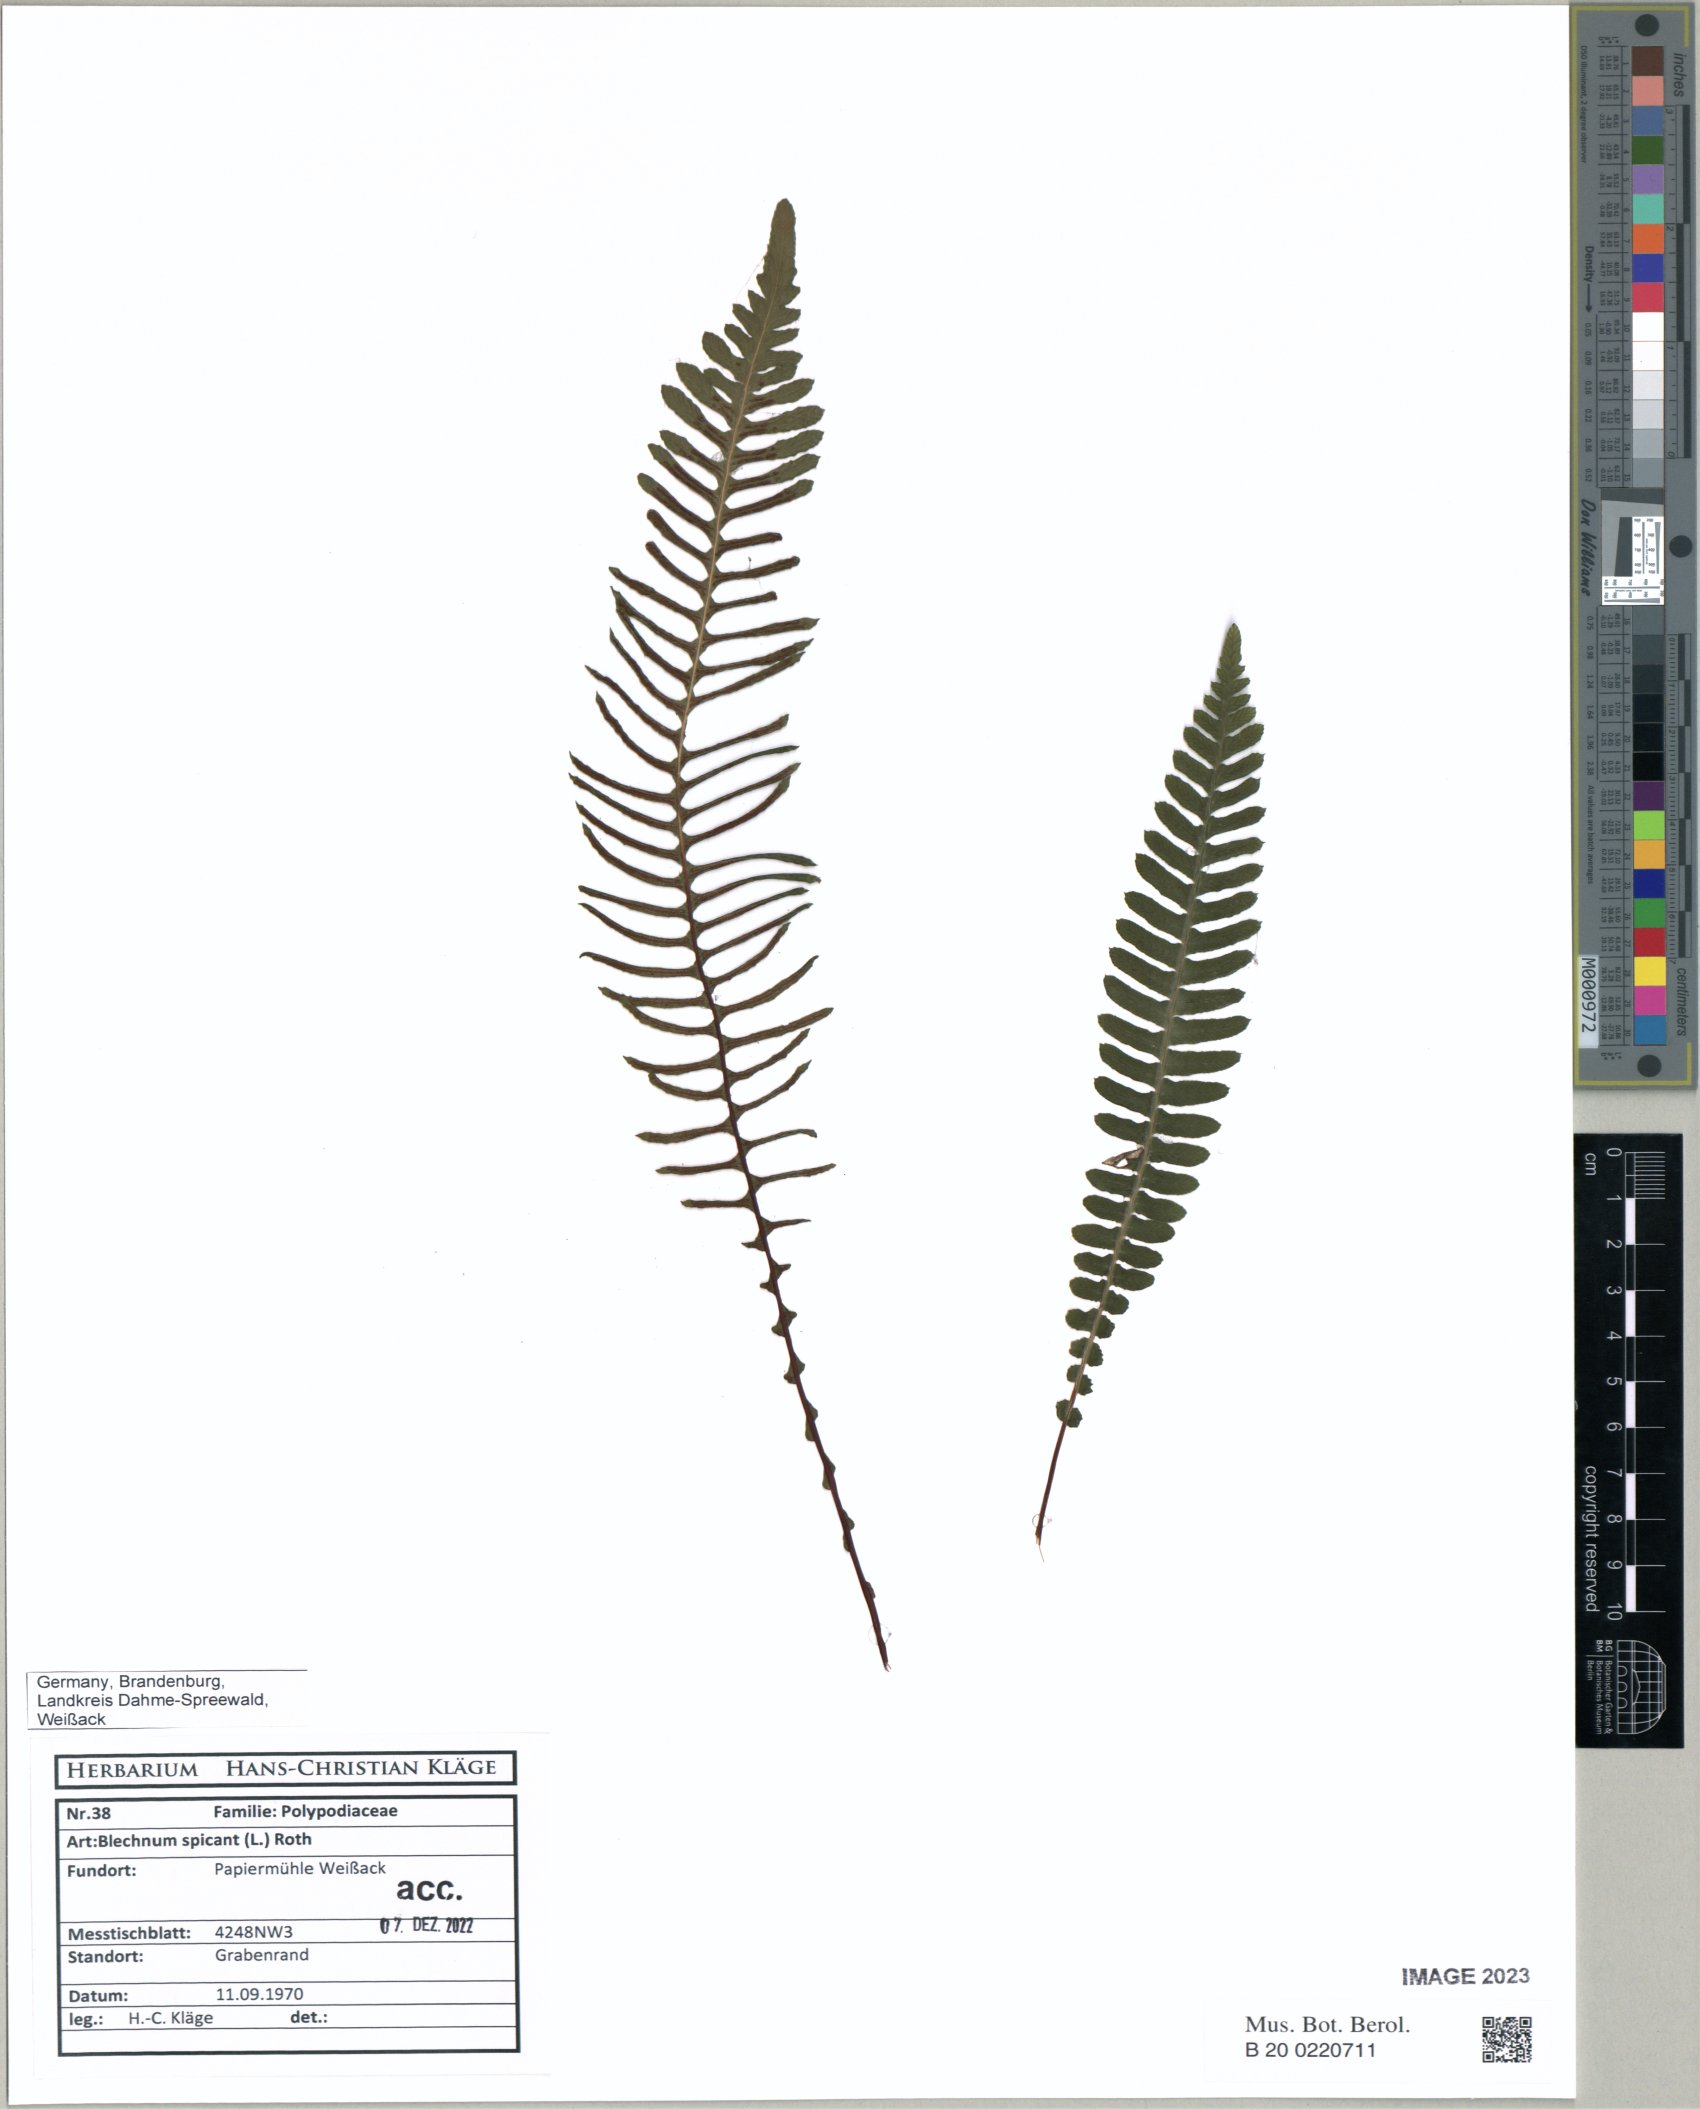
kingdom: Plantae
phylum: Tracheophyta
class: Polypodiopsida
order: Polypodiales
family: Blechnaceae
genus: Struthiopteris
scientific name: Struthiopteris spicant
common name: Deer fern
